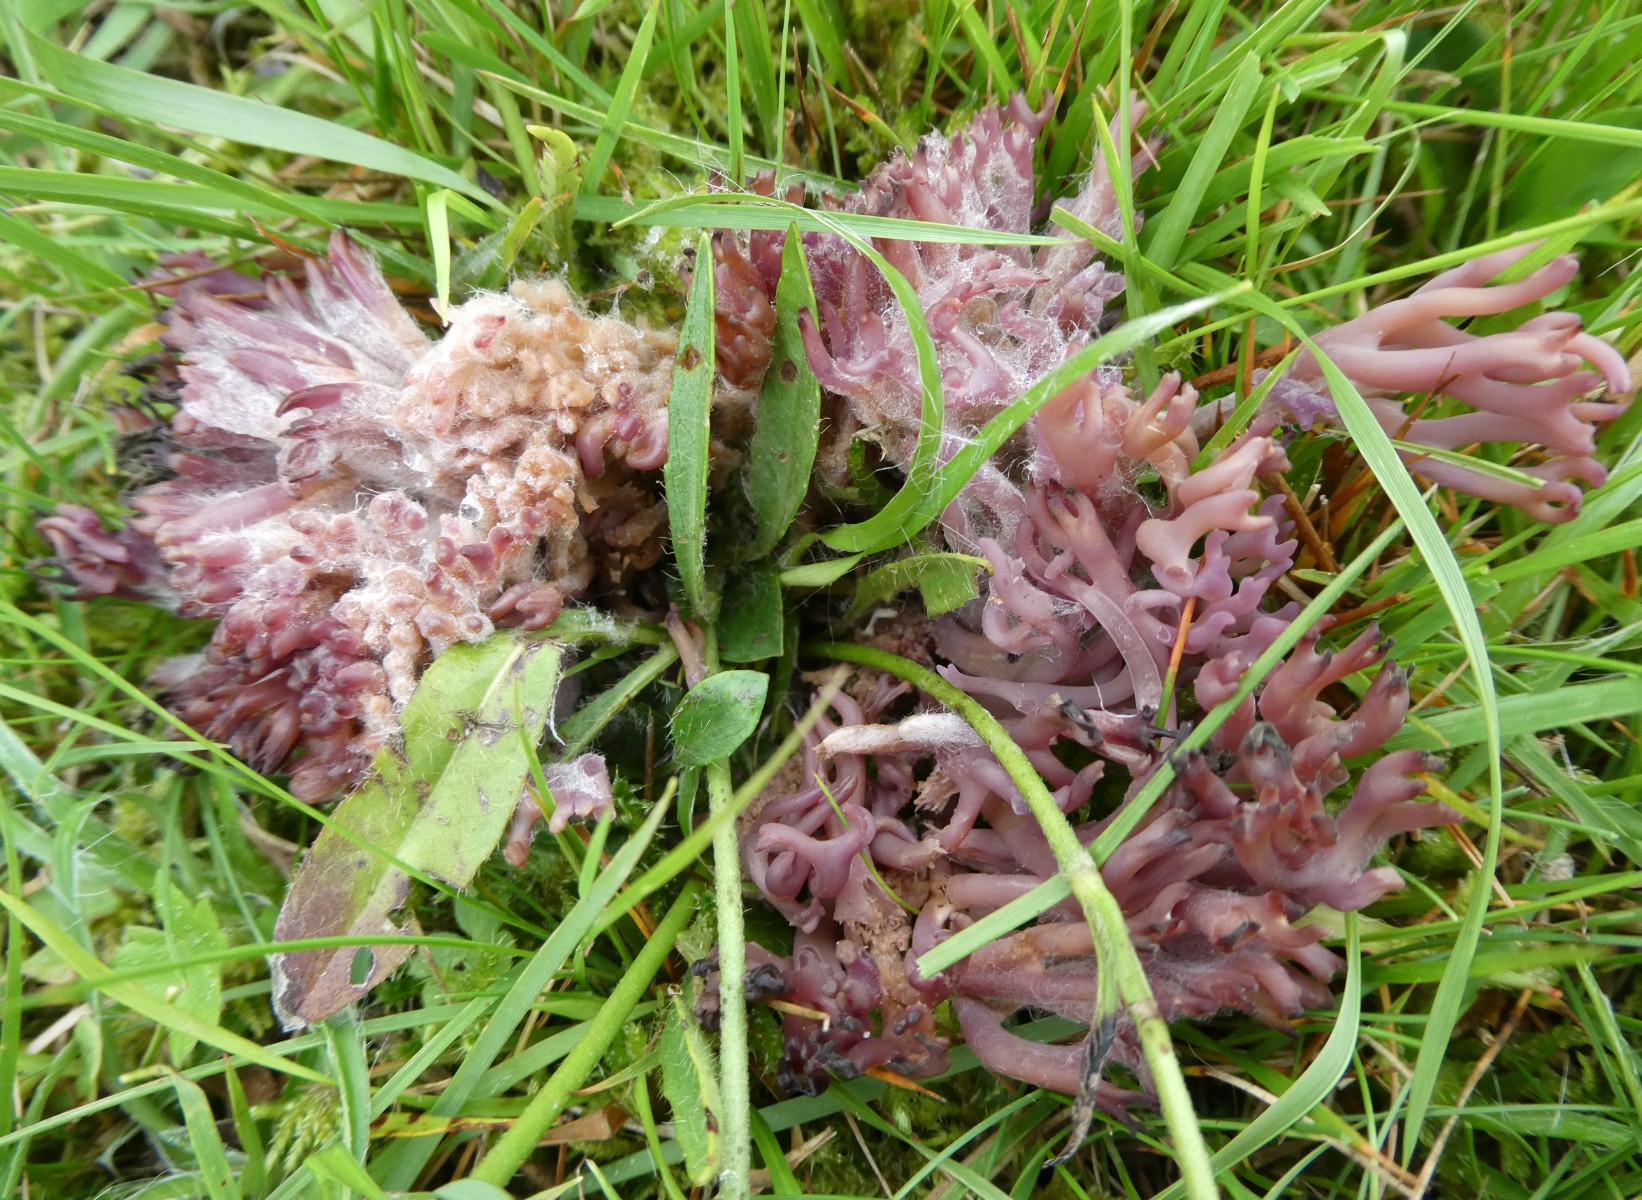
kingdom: Fungi
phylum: Basidiomycota
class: Agaricomycetes
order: Agaricales
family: Clavariaceae
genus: Clavaria
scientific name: Clavaria zollingeri
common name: purpur-køllesvamp
